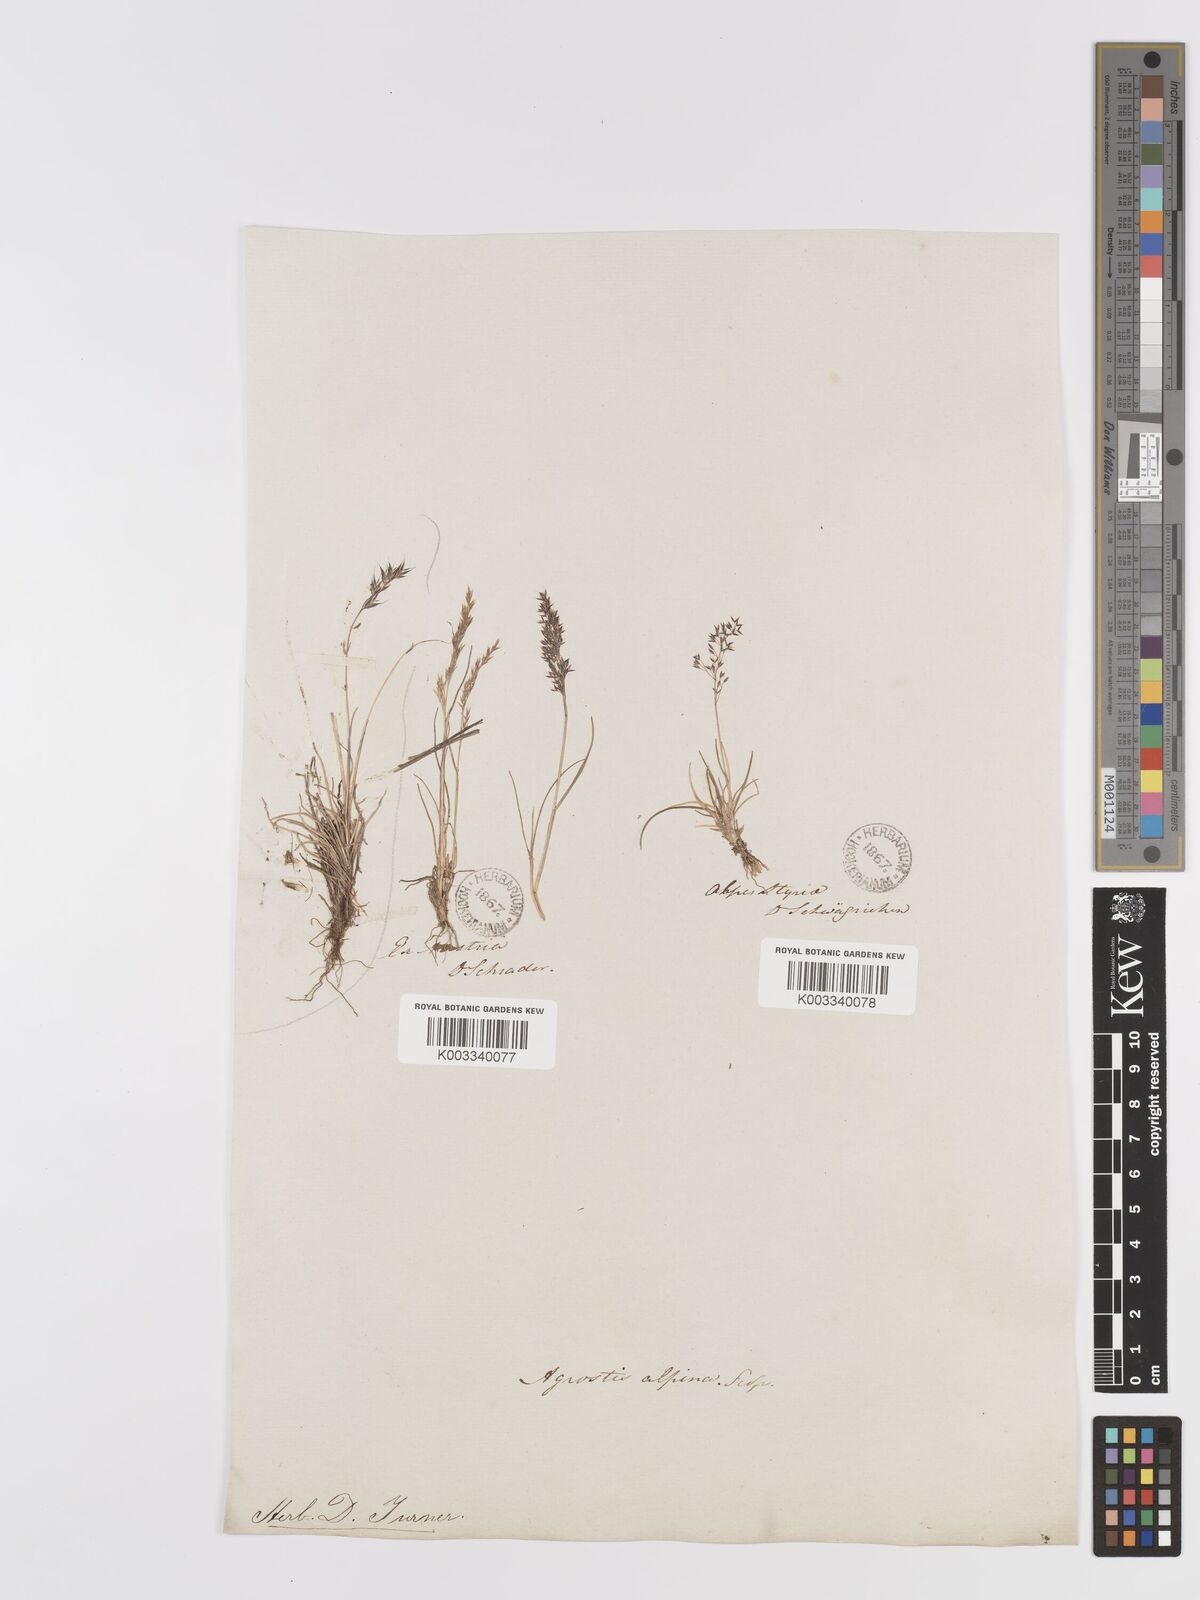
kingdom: Plantae
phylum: Tracheophyta
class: Liliopsida
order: Poales
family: Poaceae
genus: Agrostis
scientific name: Agrostis rupestris
